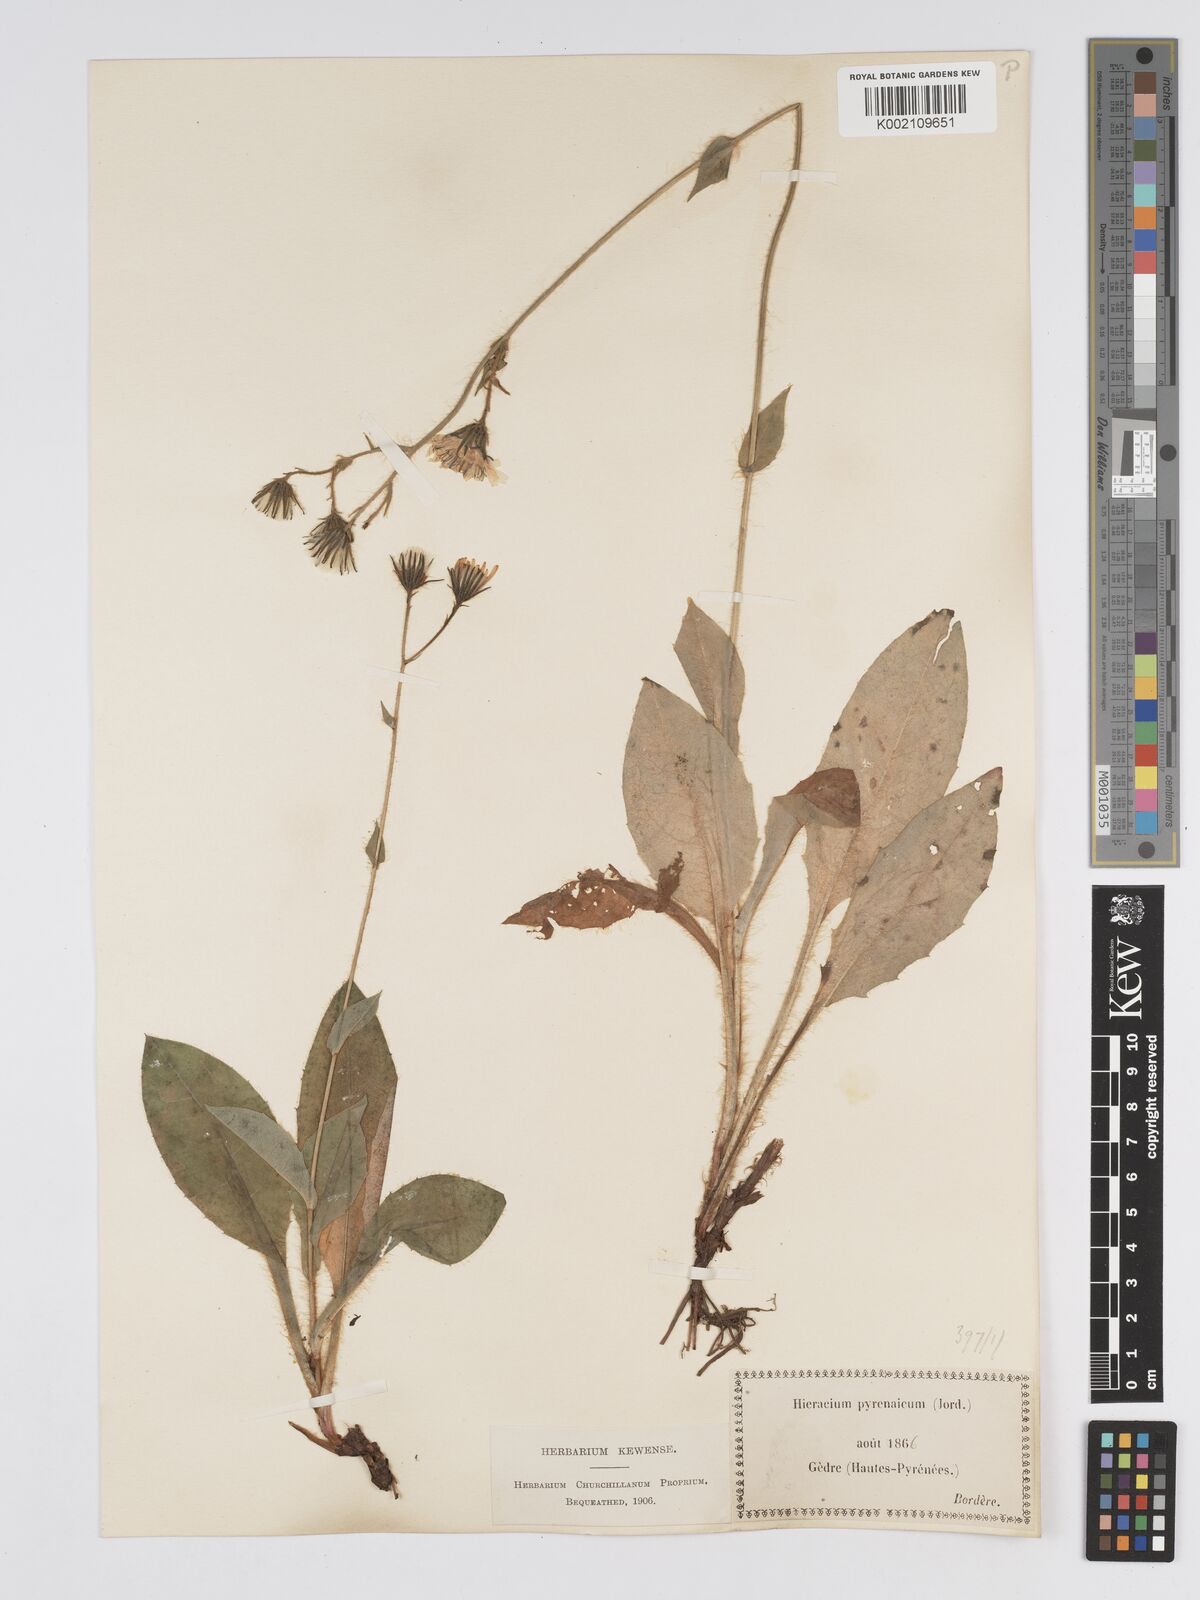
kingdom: Plantae
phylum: Tracheophyta
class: Magnoliopsida
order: Asterales
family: Asteraceae
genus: Hieracium
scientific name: Hieracium nobile
